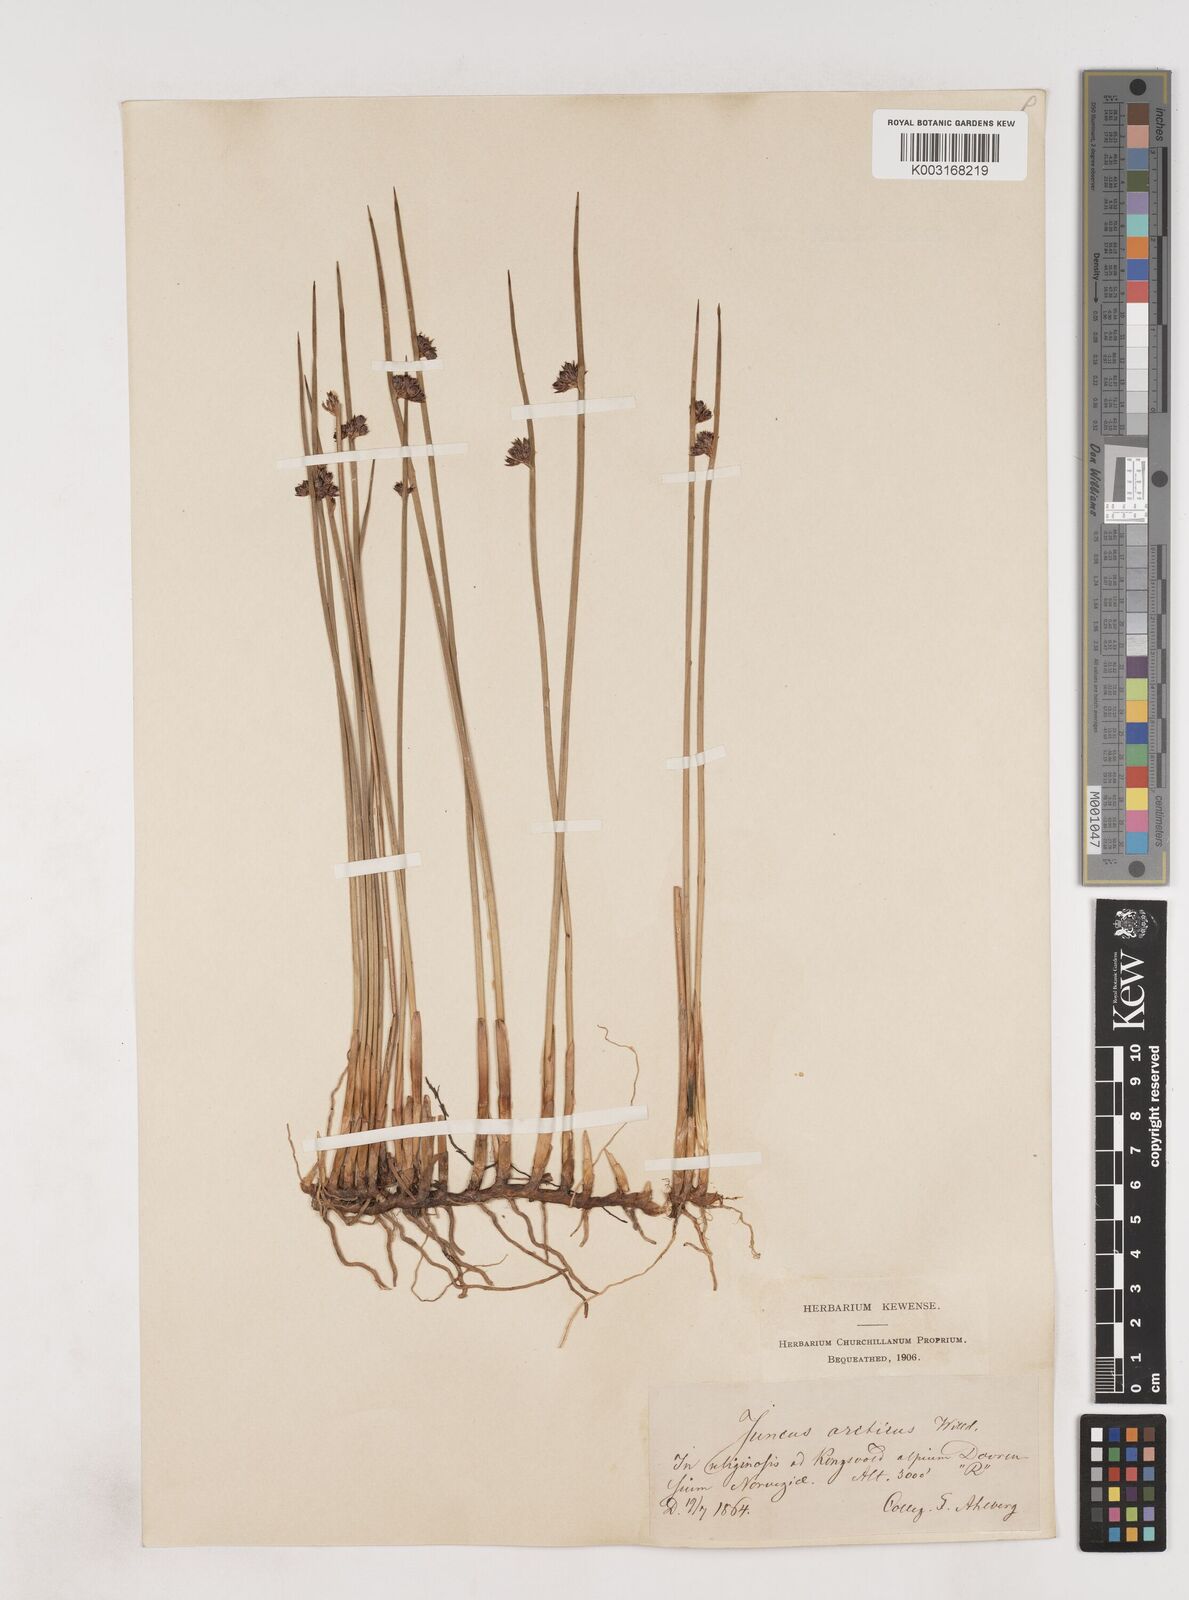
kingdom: Plantae
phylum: Tracheophyta
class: Liliopsida
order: Poales
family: Juncaceae
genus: Juncus
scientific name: Juncus arcticus
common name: Arctic rush
